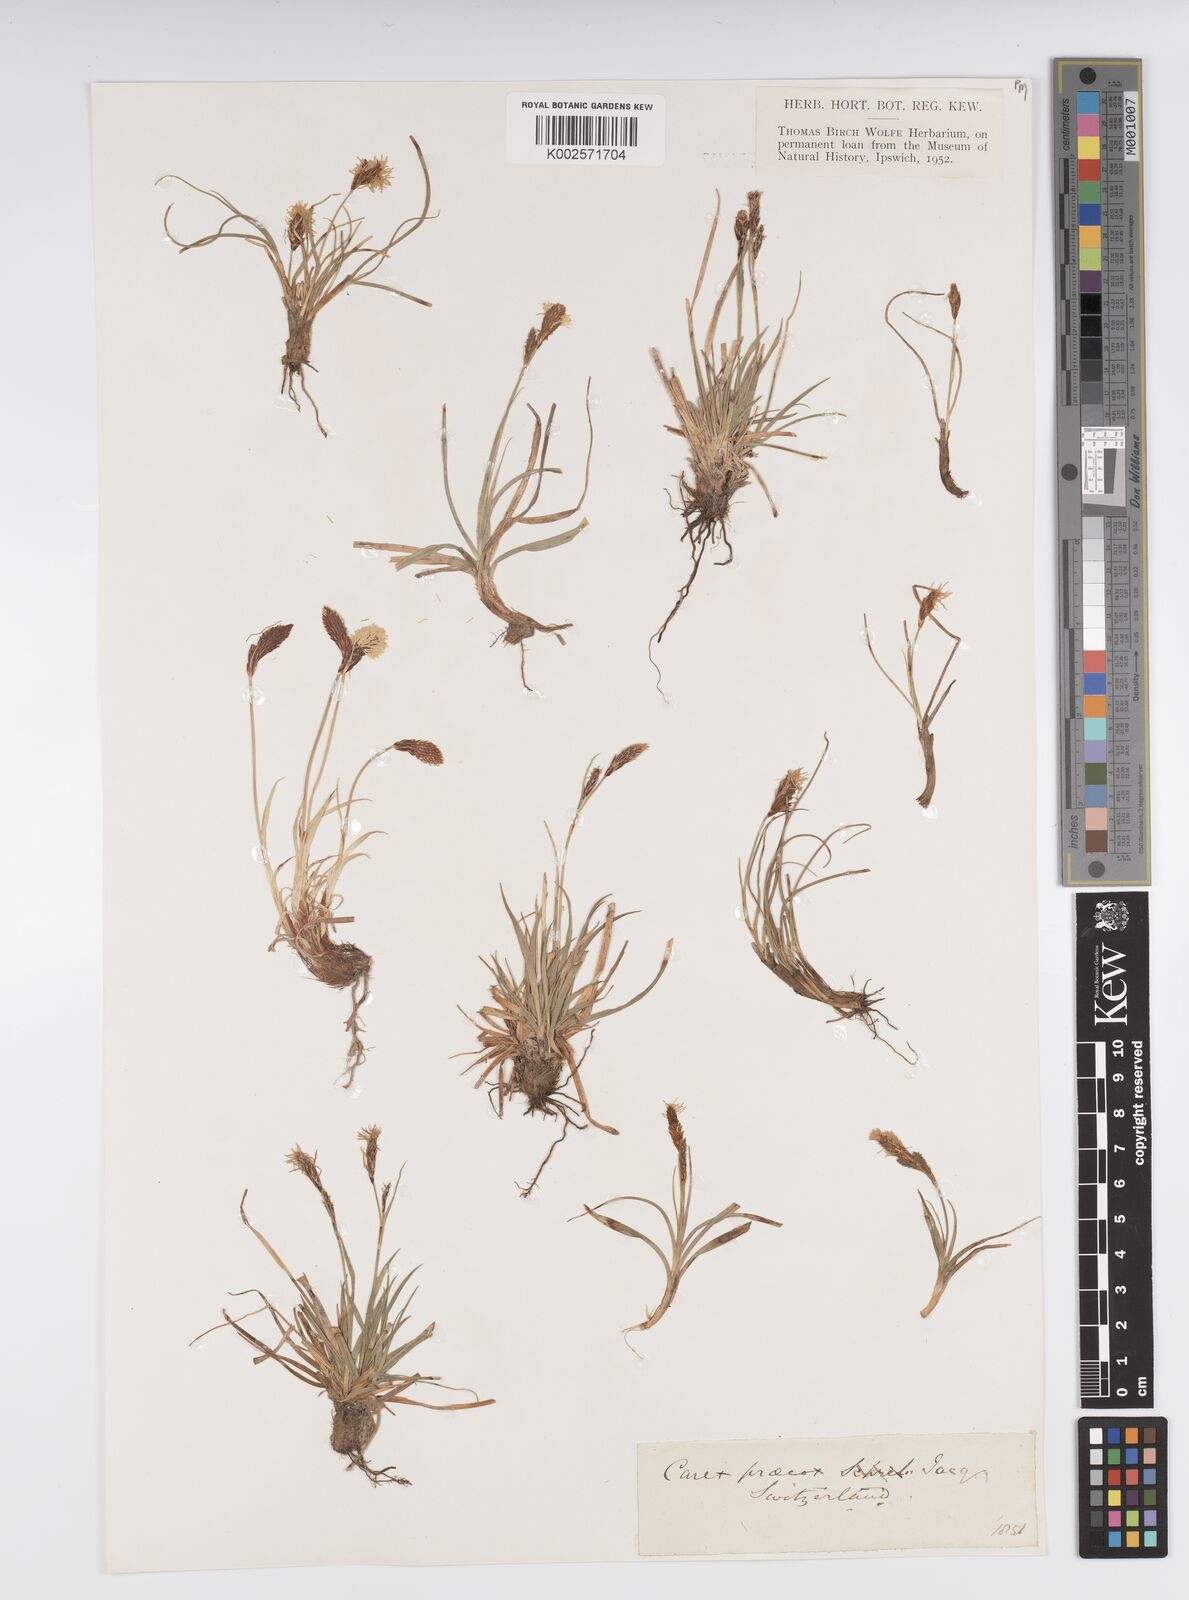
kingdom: Plantae
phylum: Tracheophyta
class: Liliopsida
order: Poales
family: Cyperaceae
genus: Carex
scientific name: Carex caryophyllea
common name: Spring sedge
